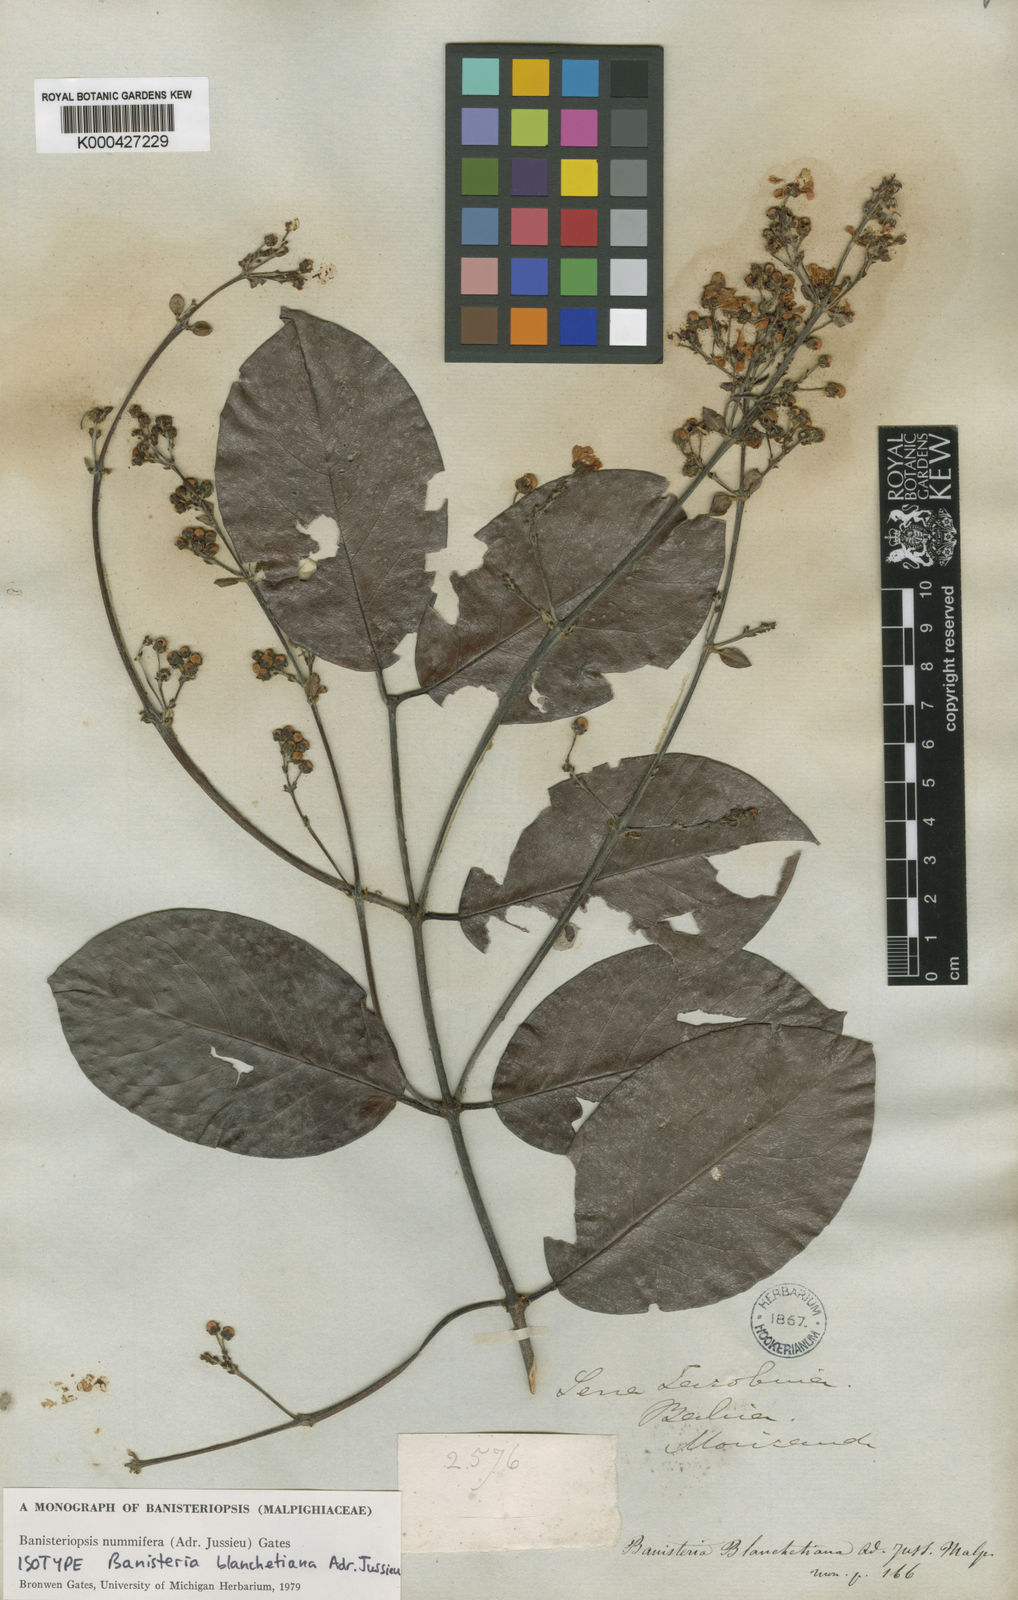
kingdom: Plantae
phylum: Tracheophyta
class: Magnoliopsida
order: Malpighiales
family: Malpighiaceae
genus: Banisteriopsis
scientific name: Banisteriopsis nummifera
